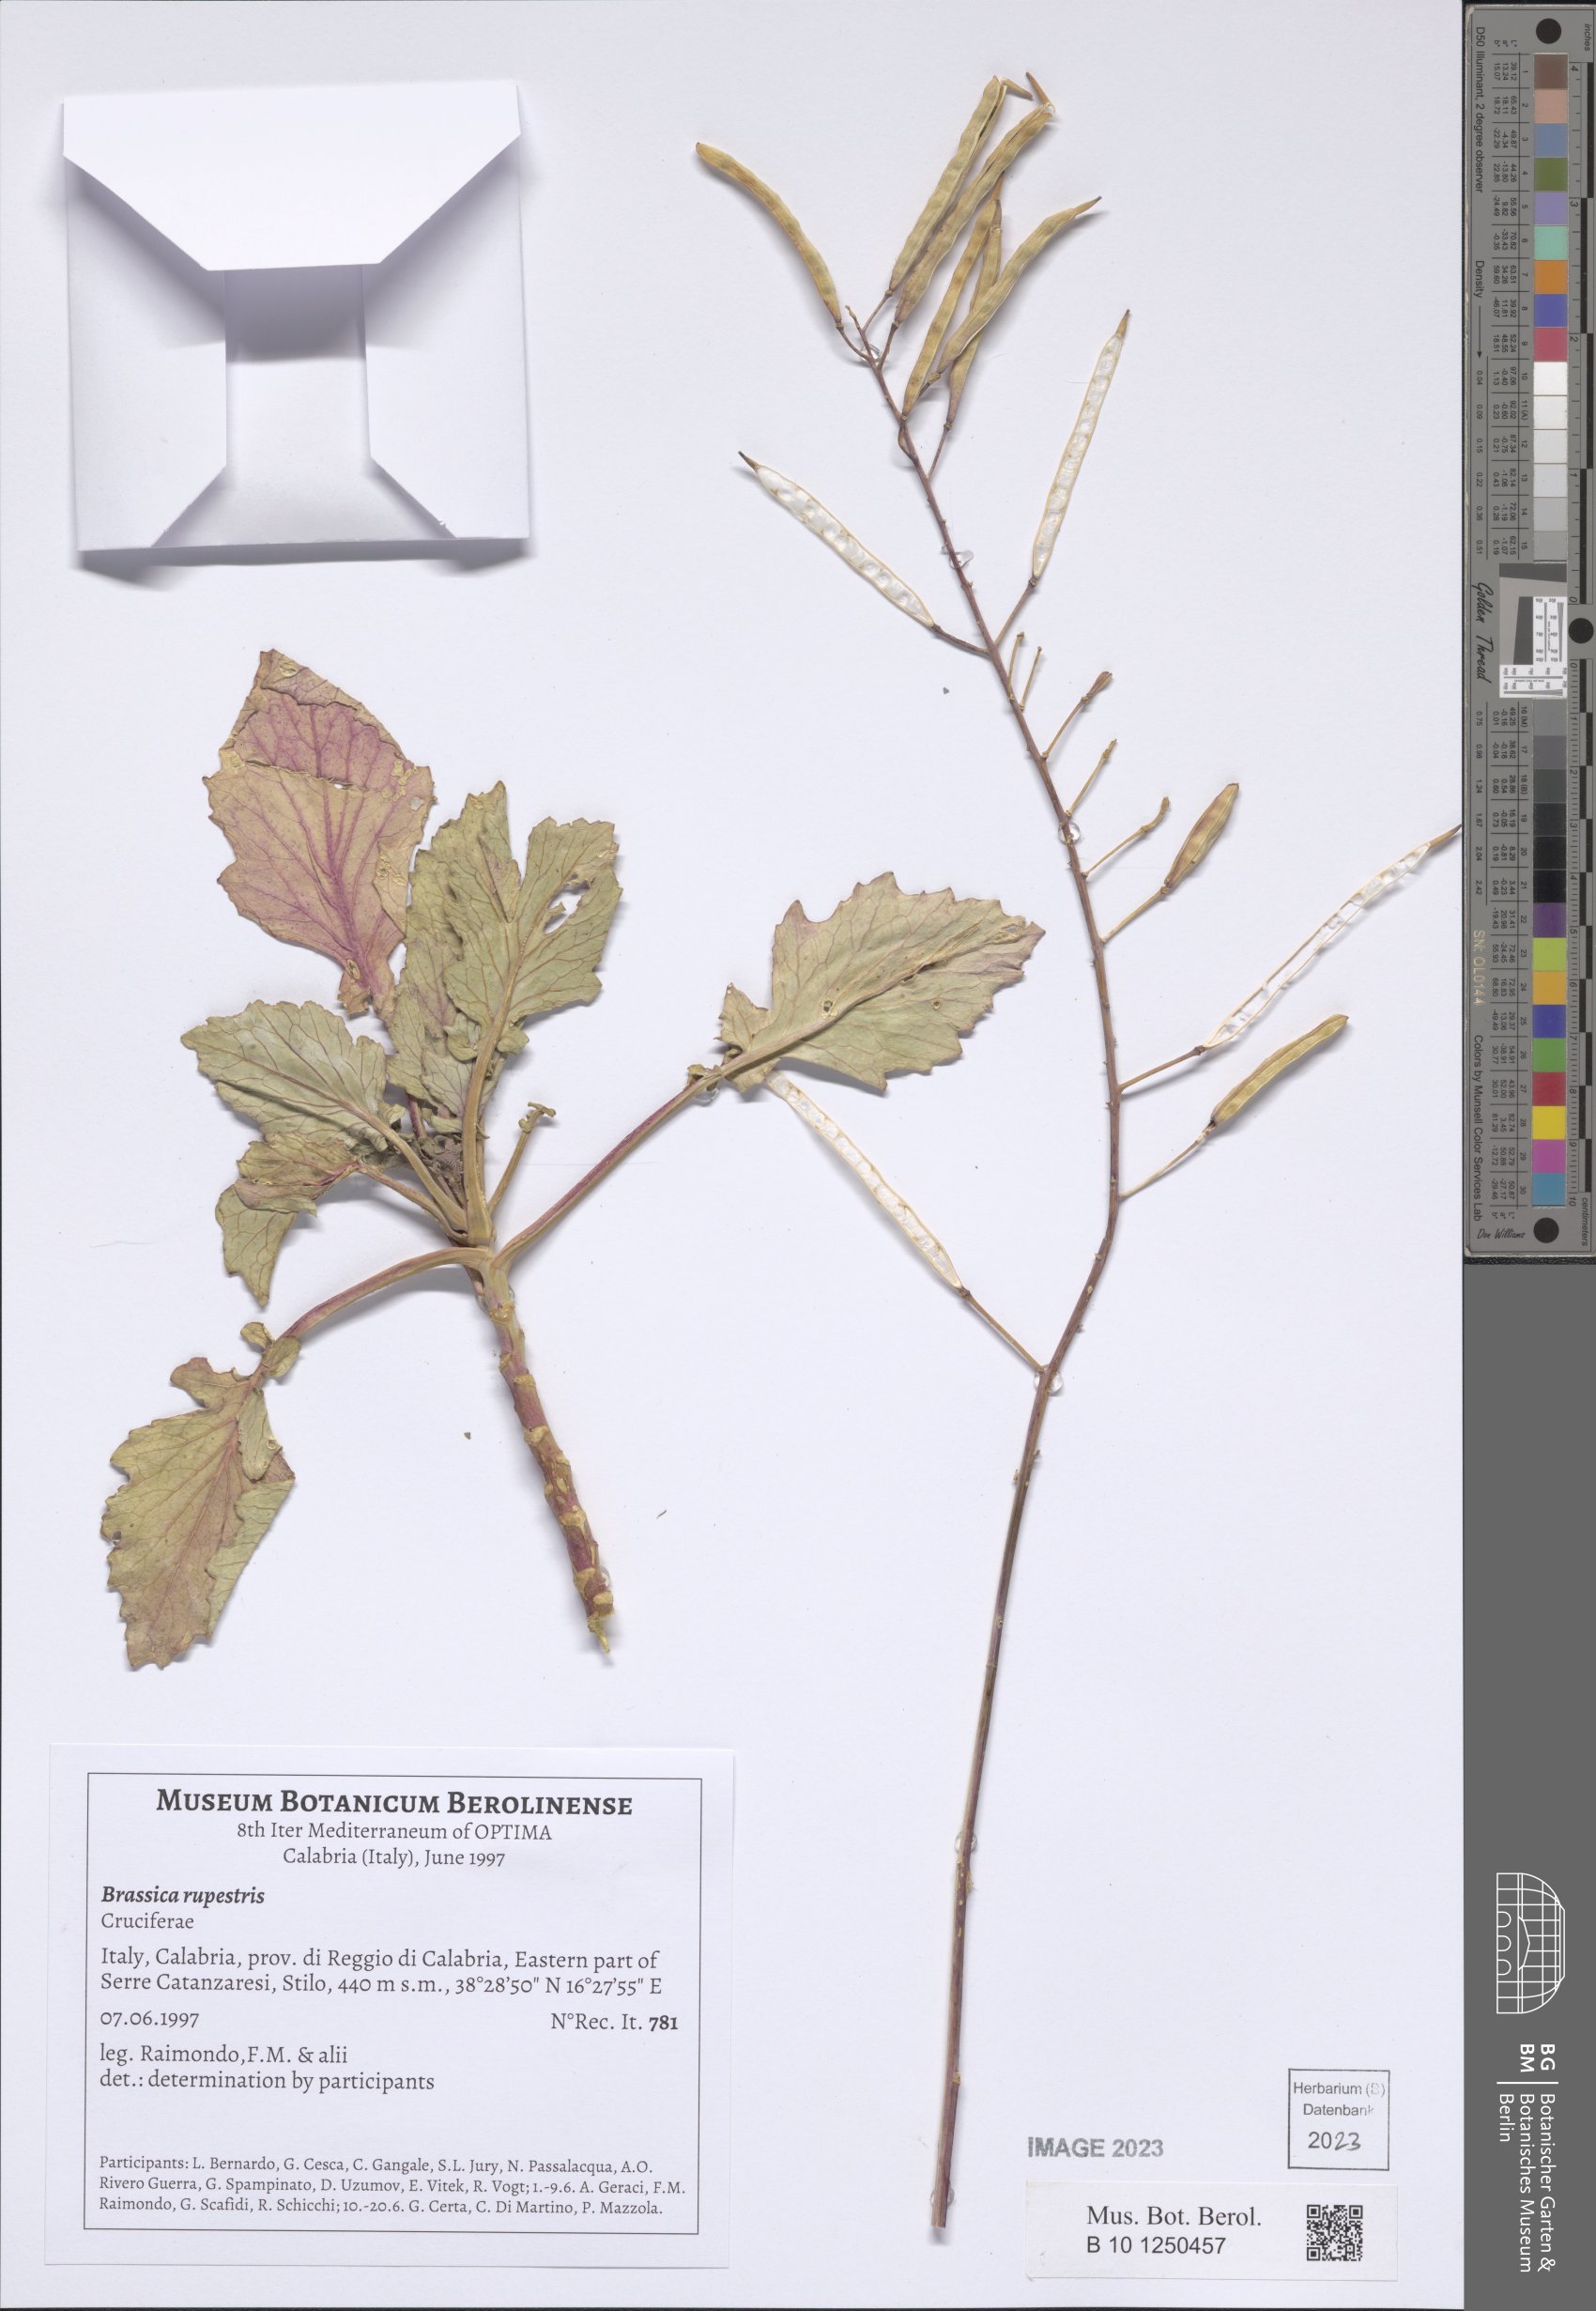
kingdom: Plantae
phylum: Tracheophyta
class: Magnoliopsida
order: Brassicales
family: Brassicaceae
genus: Brassica
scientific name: Brassica rupestris
